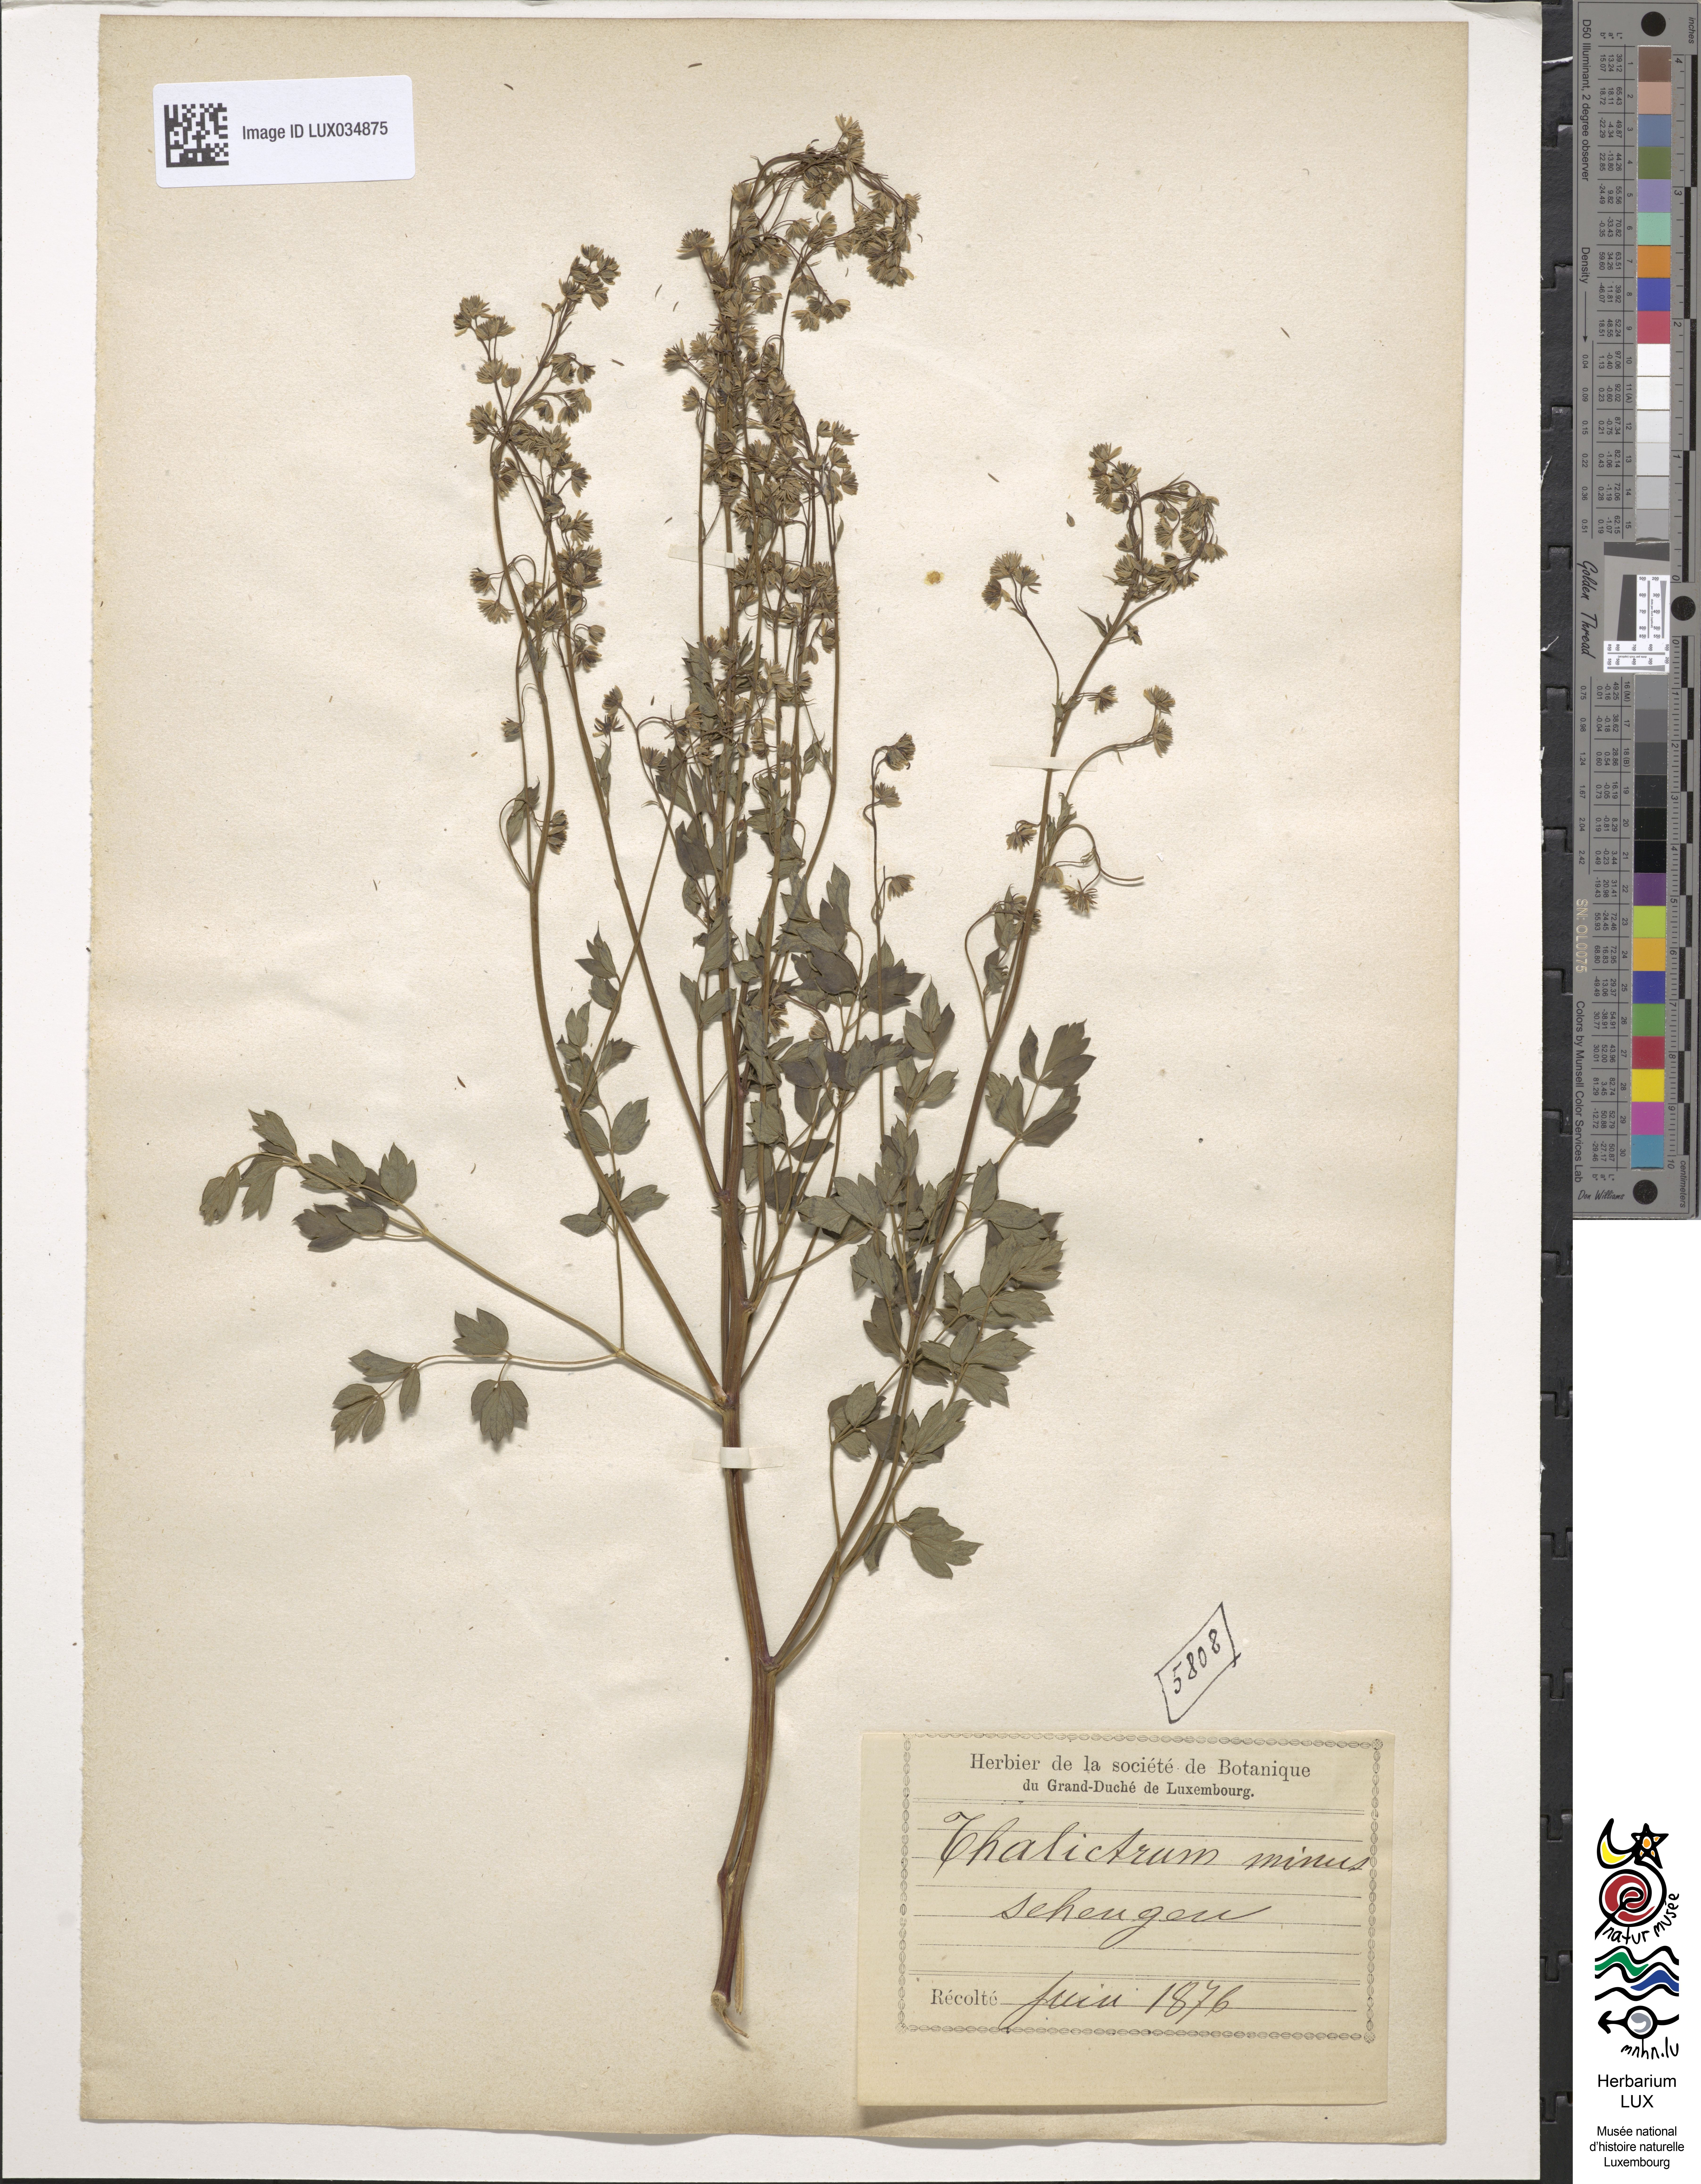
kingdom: Plantae
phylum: Tracheophyta
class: Magnoliopsida
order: Ranunculales
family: Ranunculaceae
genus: Thalictrum
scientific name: Thalictrum minus
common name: Lesser meadow-rue
